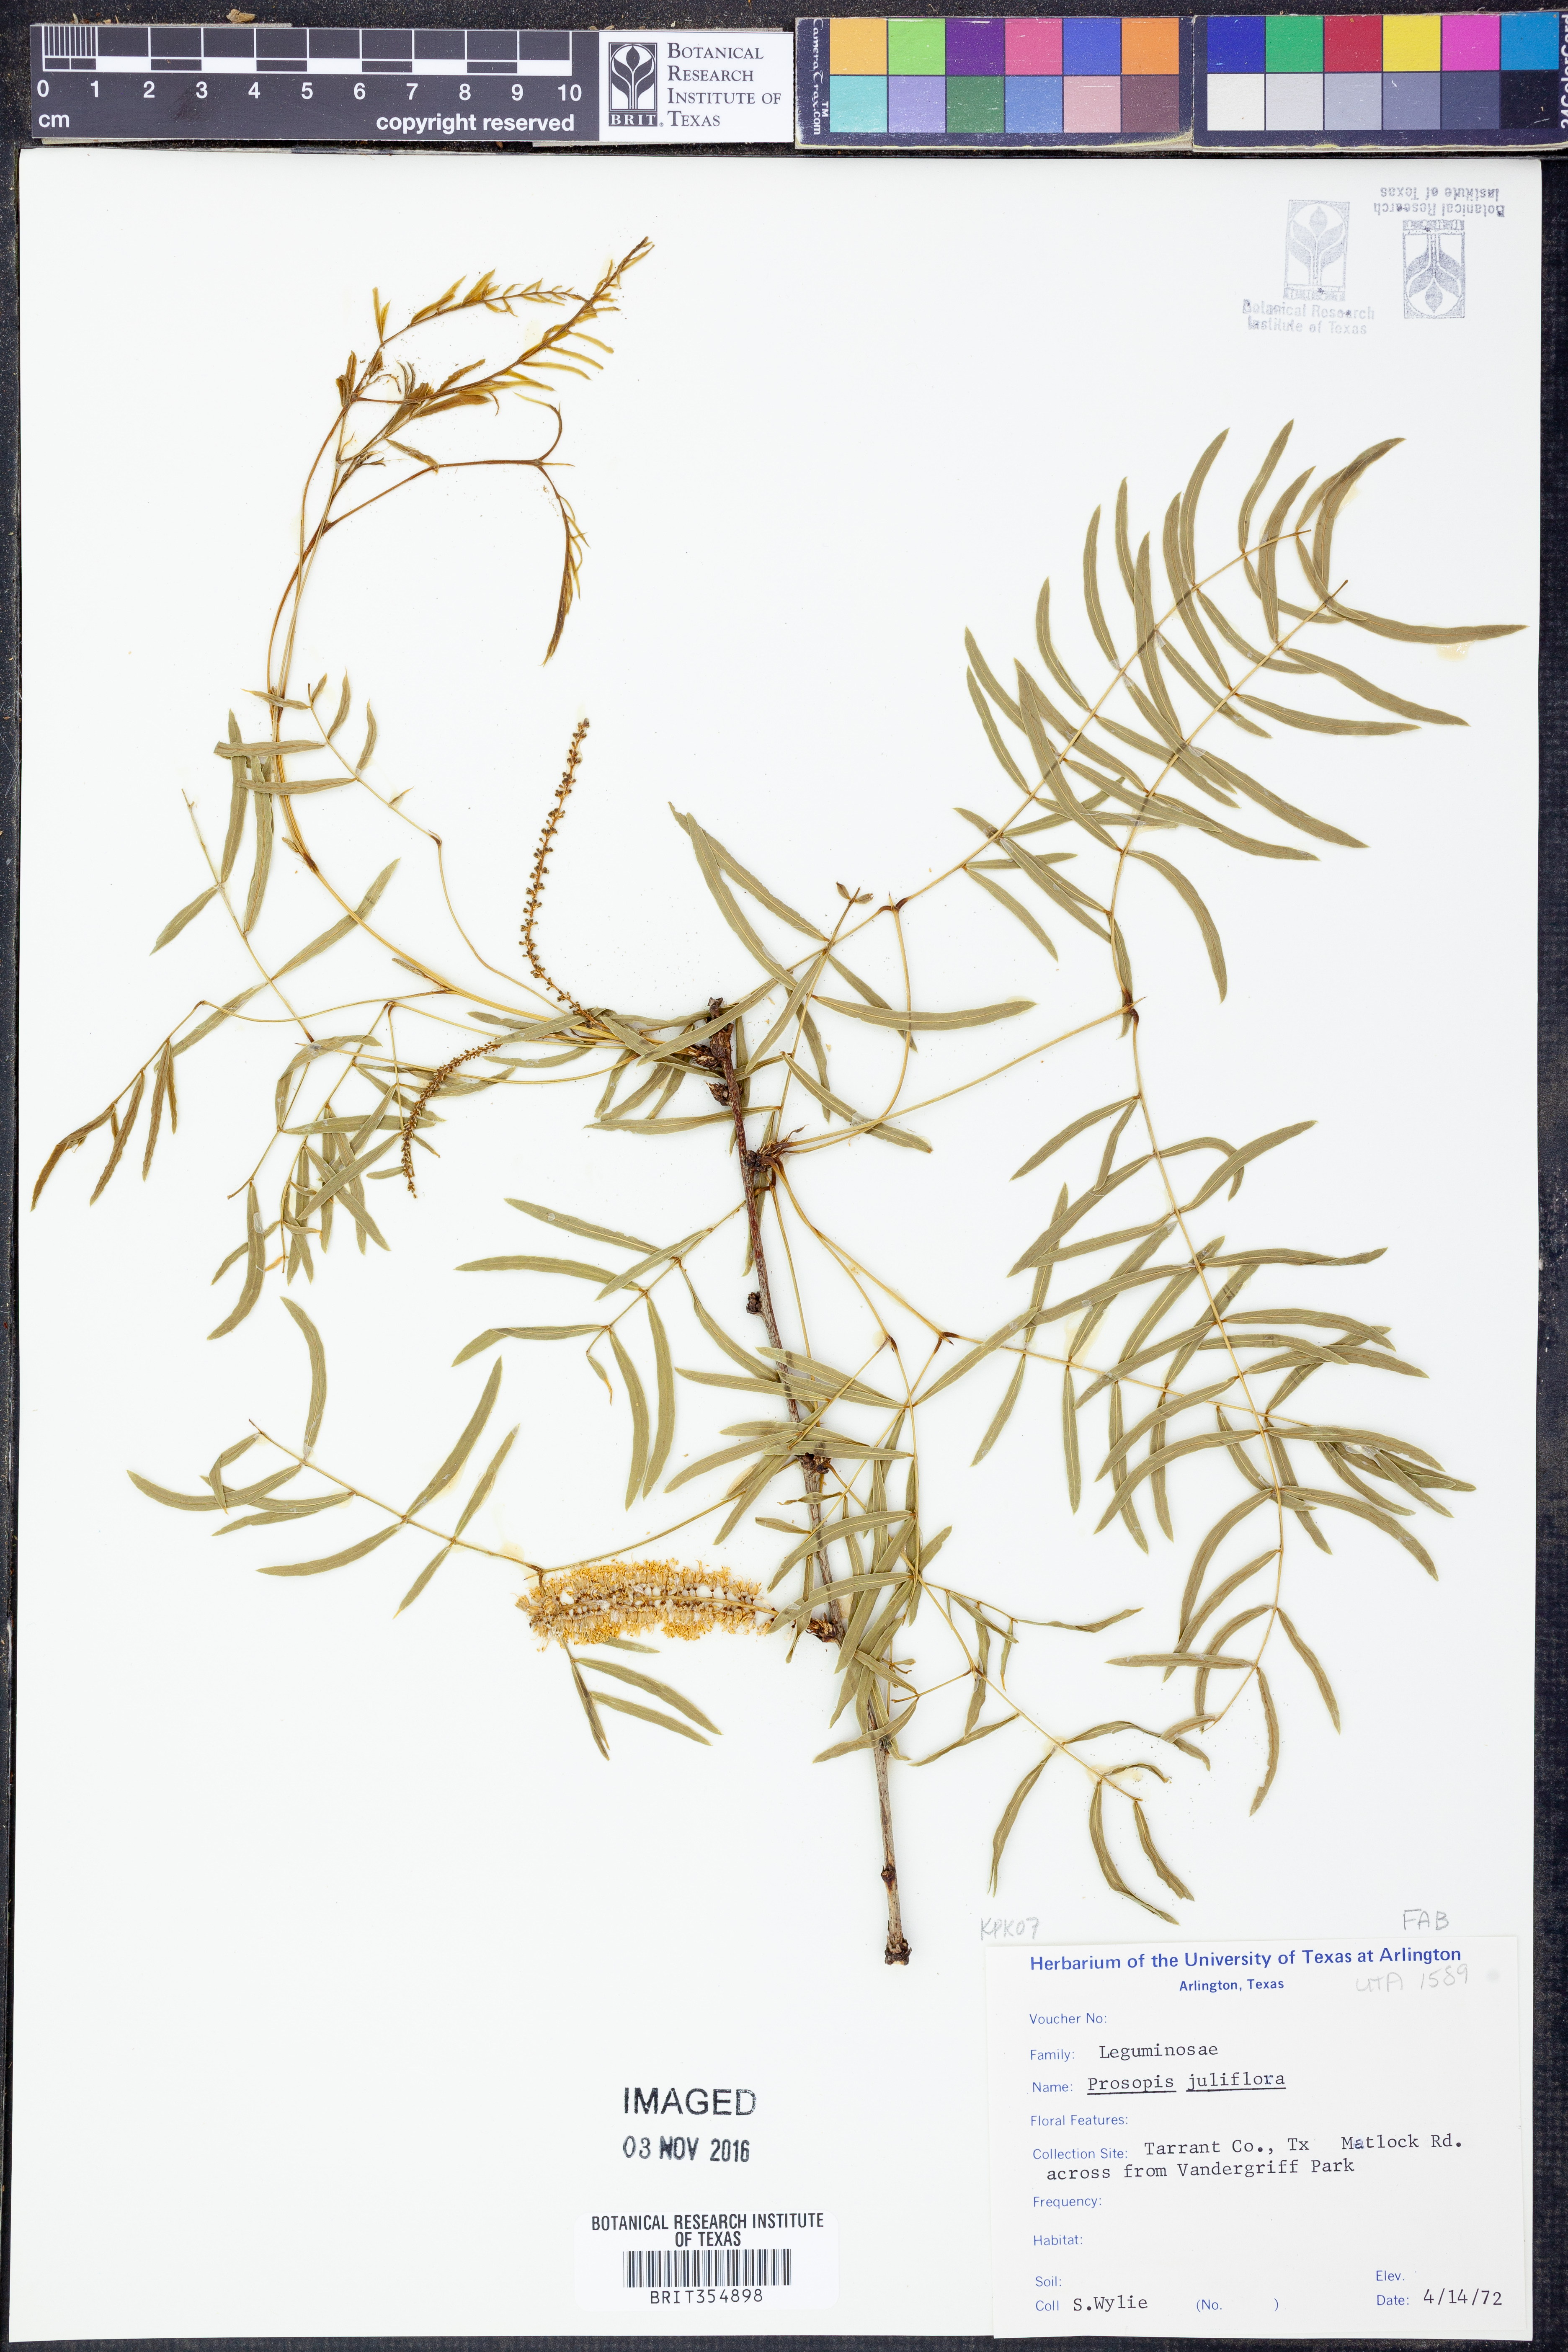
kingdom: Plantae
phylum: Tracheophyta
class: Magnoliopsida
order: Fabales
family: Fabaceae
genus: Prosopis
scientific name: Prosopis juliflora
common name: Mesquite
